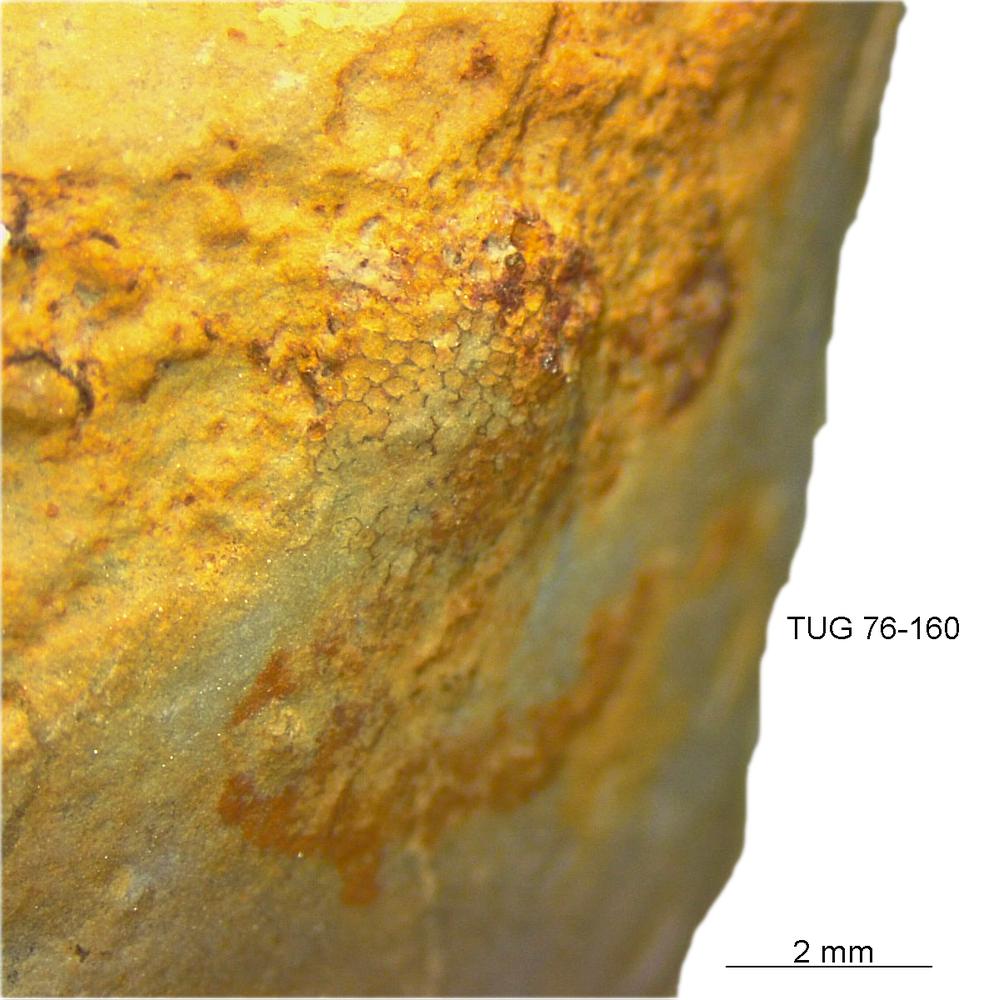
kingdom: Animalia
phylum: Bryozoa
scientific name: Bryozoa
